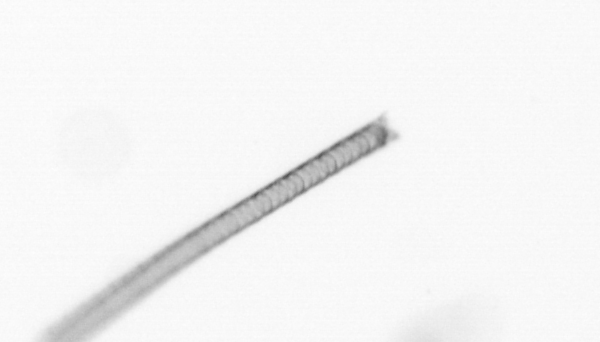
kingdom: Chromista
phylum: Ochrophyta
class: Bacillariophyceae
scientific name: Bacillariophyceae
